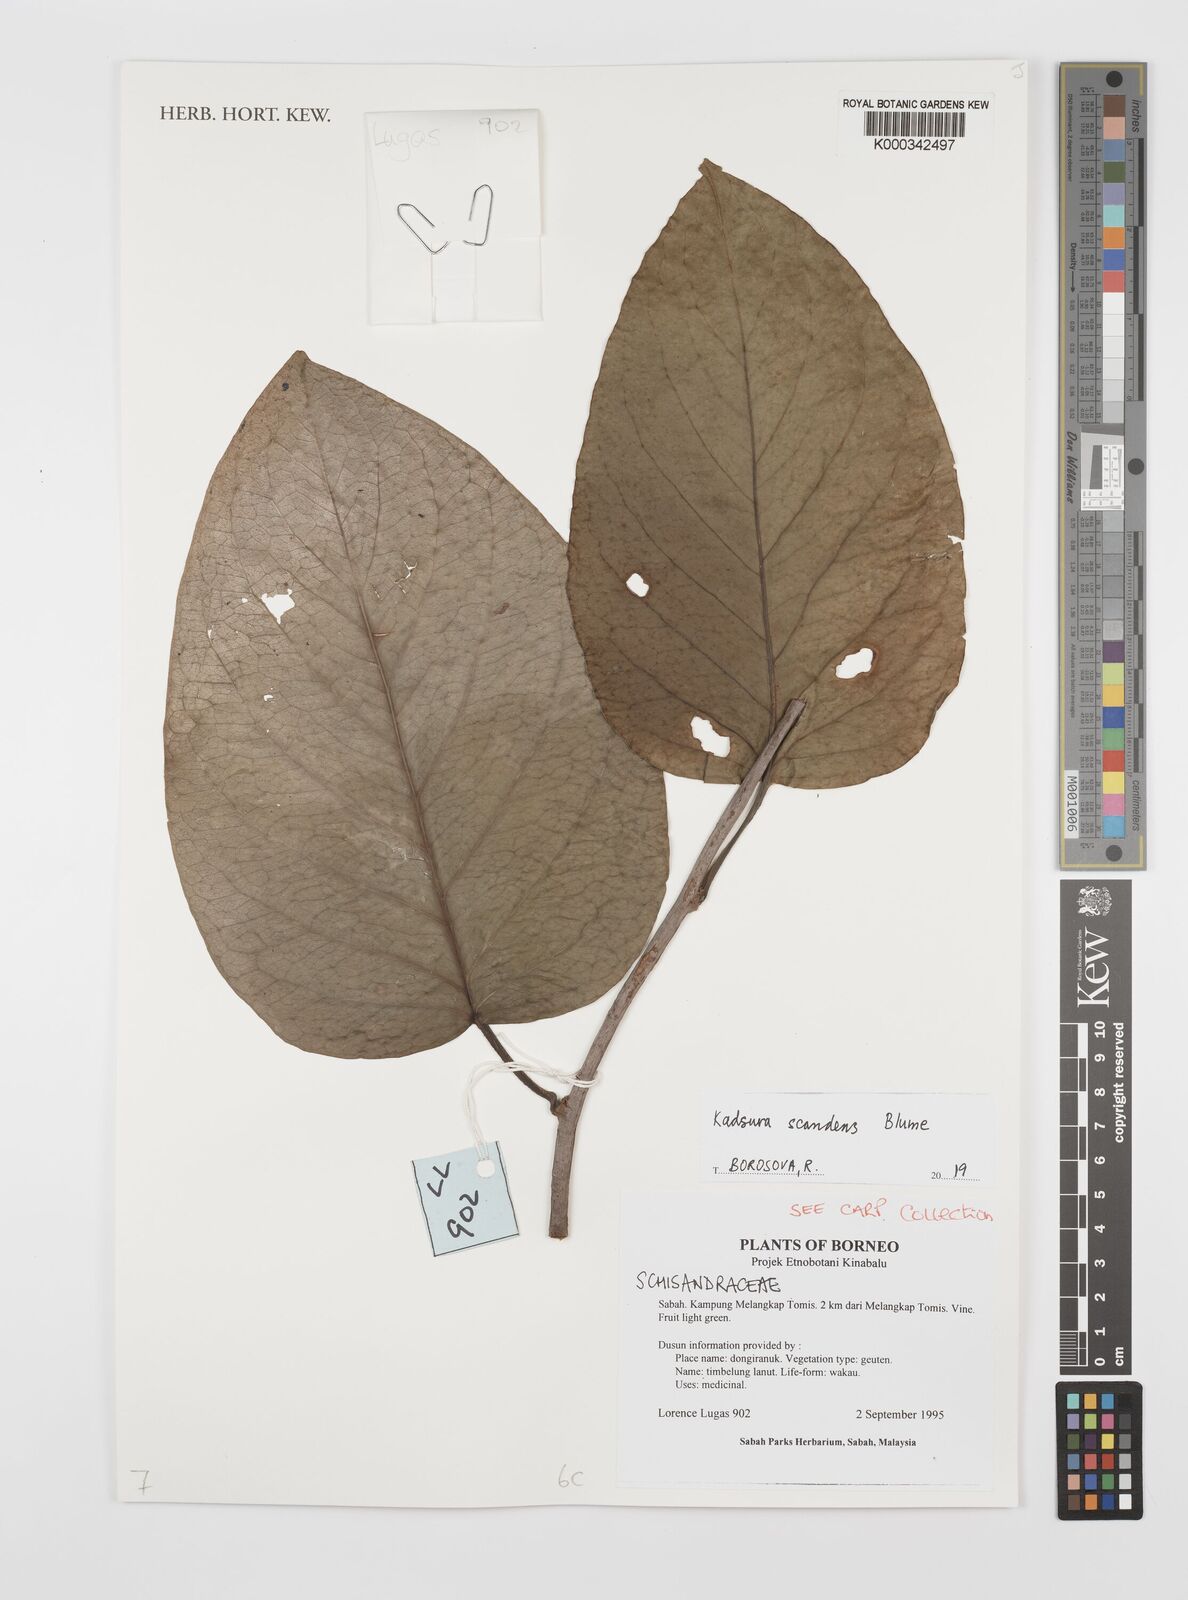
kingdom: Plantae
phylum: Tracheophyta
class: Magnoliopsida
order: Austrobaileyales
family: Schisandraceae
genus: Kadsura
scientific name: Kadsura scandens
